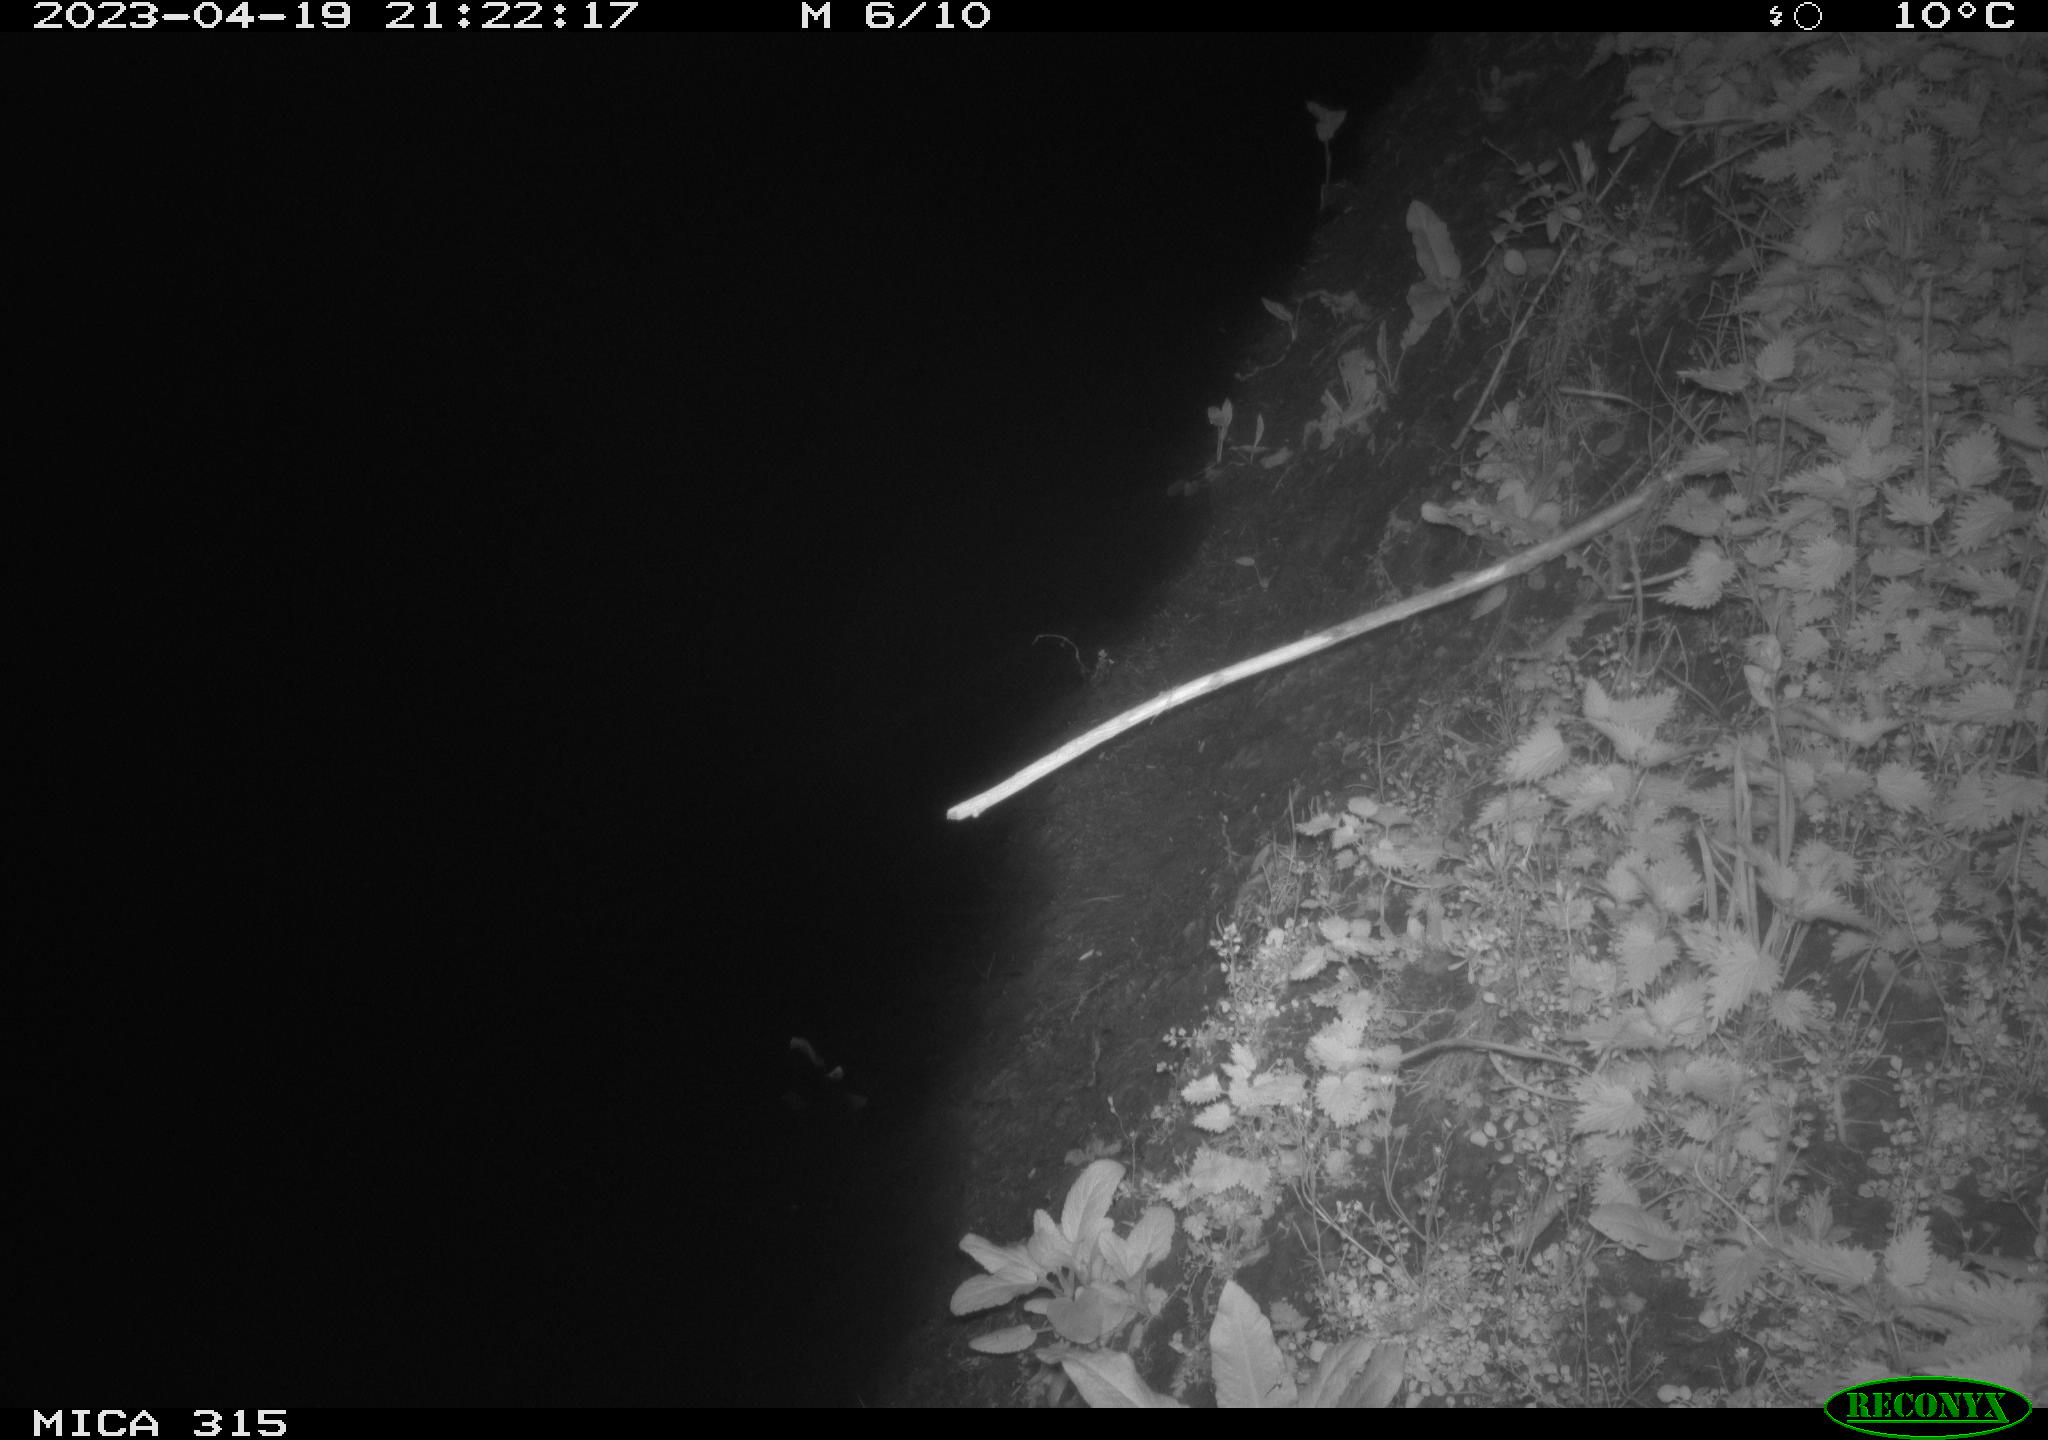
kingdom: Animalia
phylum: Chordata
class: Mammalia
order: Rodentia
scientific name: Rodentia
